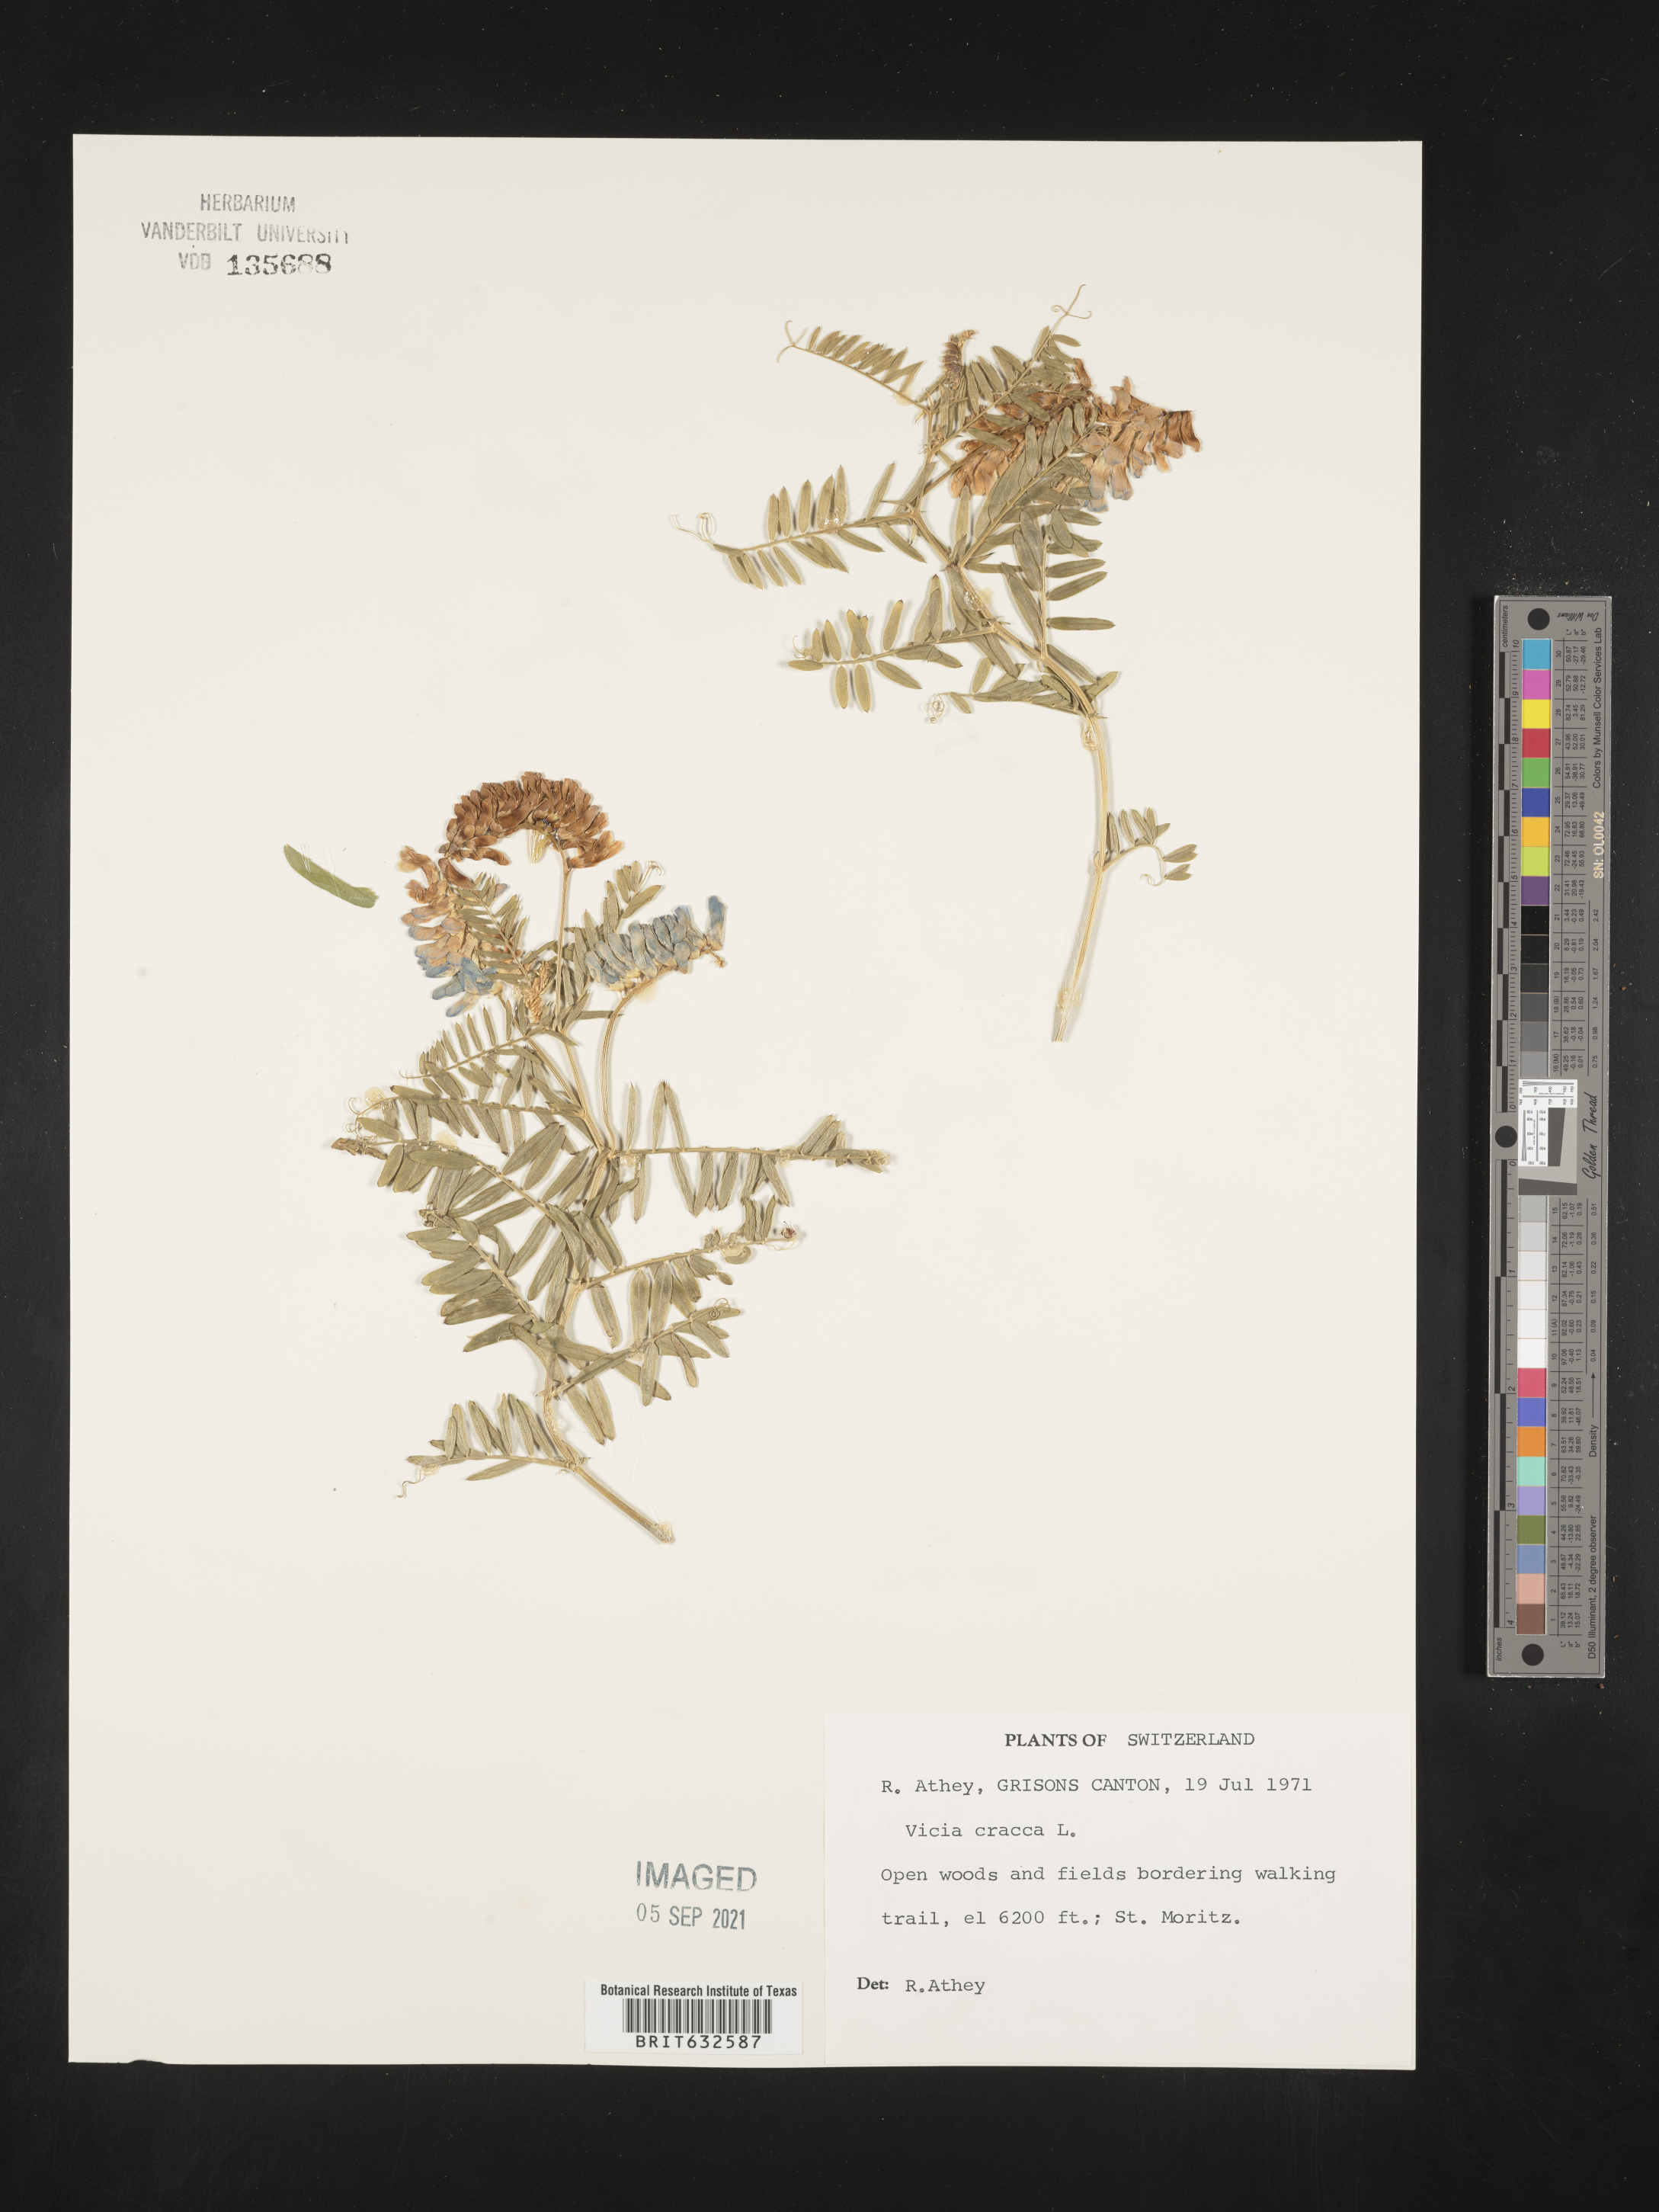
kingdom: Plantae
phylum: Tracheophyta
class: Magnoliopsida
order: Fabales
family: Fabaceae
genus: Vicia
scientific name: Vicia
